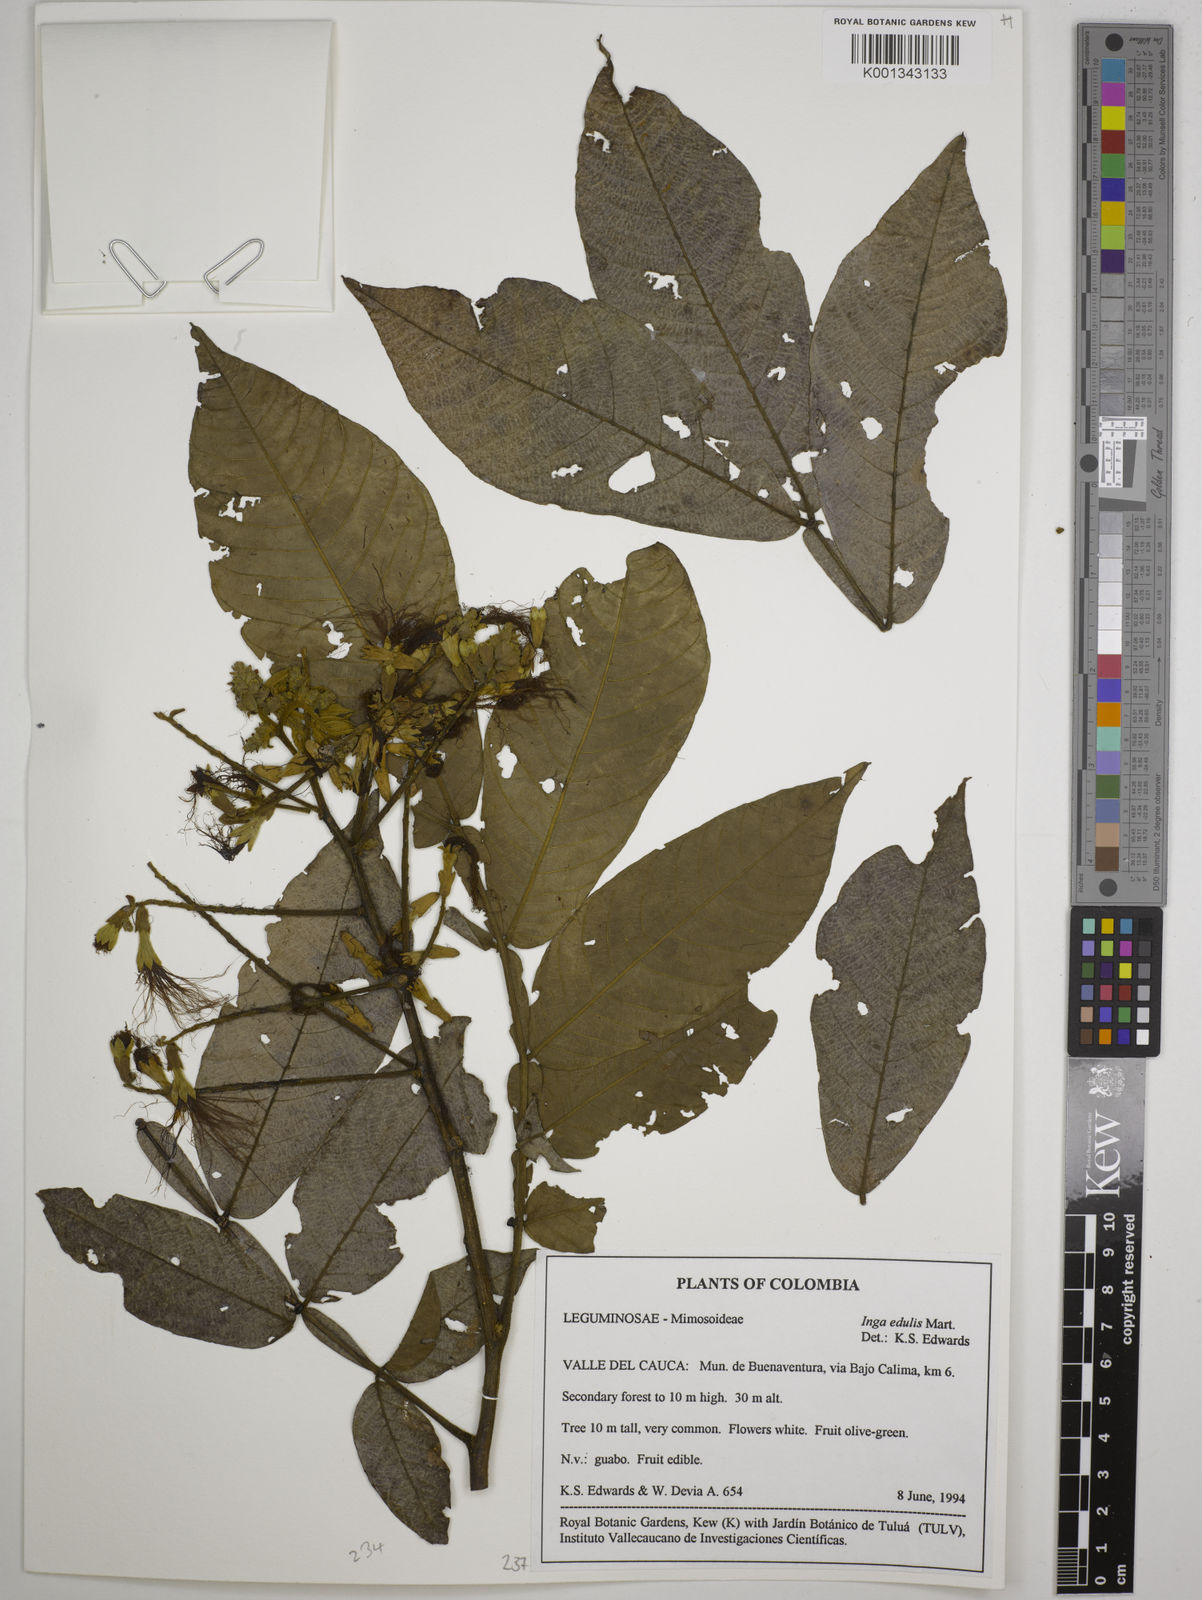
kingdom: Plantae
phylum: Tracheophyta
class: Magnoliopsida
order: Fabales
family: Fabaceae
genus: Inga
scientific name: Inga edulis
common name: Ice cream bean
